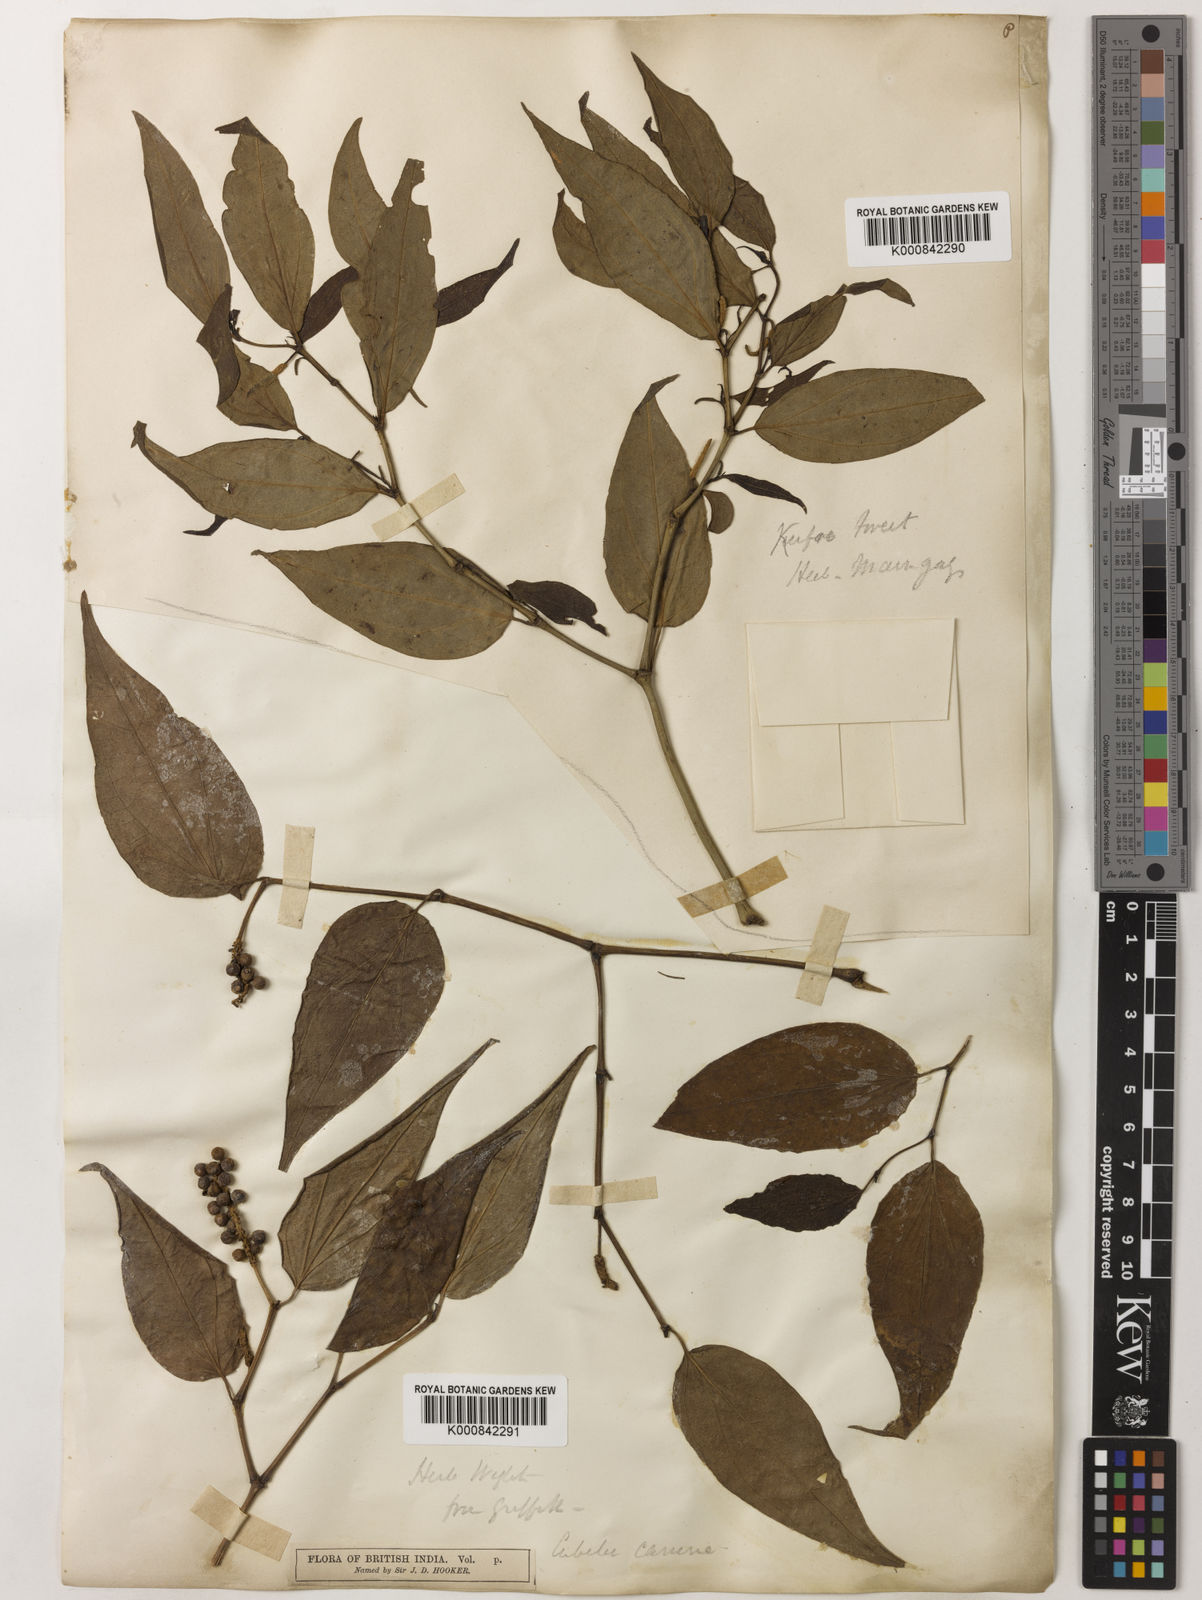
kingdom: Plantae
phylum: Tracheophyta
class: Magnoliopsida
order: Piperales
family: Piperaceae
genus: Piper
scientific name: Piper lanatum
